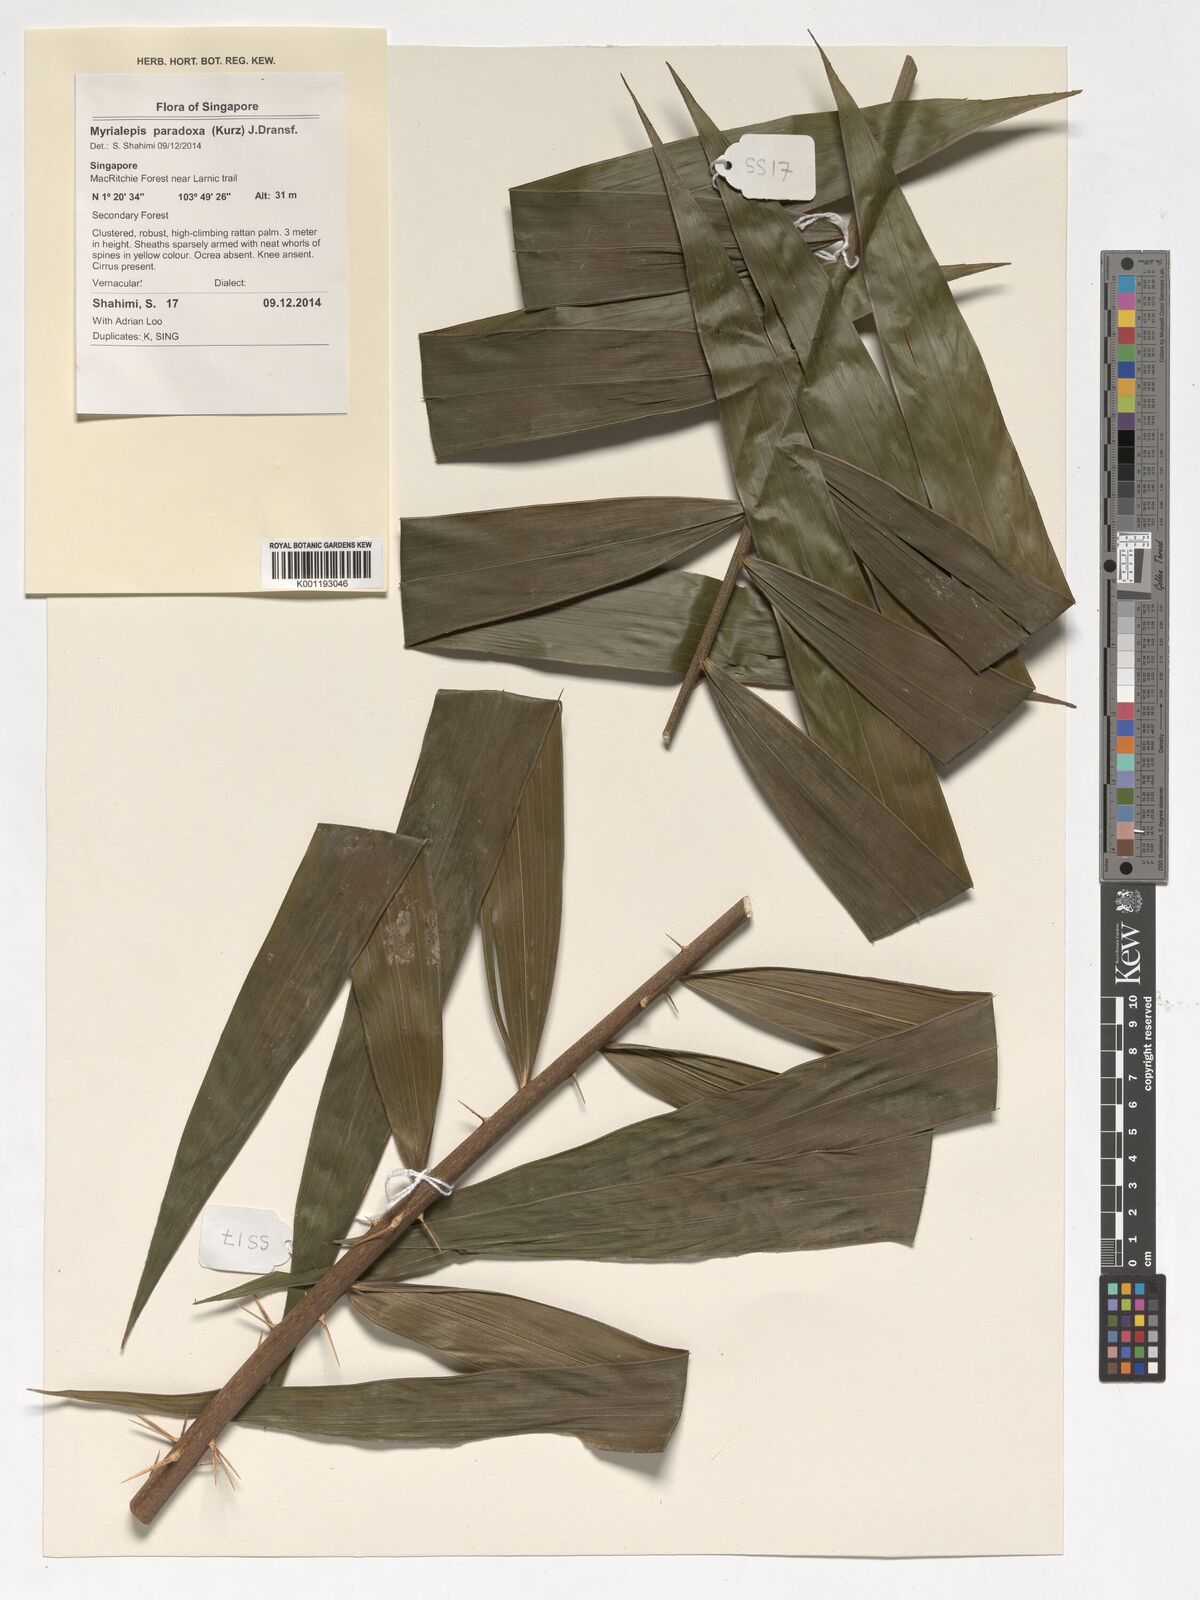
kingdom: Plantae
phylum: Tracheophyta
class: Liliopsida
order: Arecales
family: Arecaceae
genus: Myrialepis
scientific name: Myrialepis paradoxa
